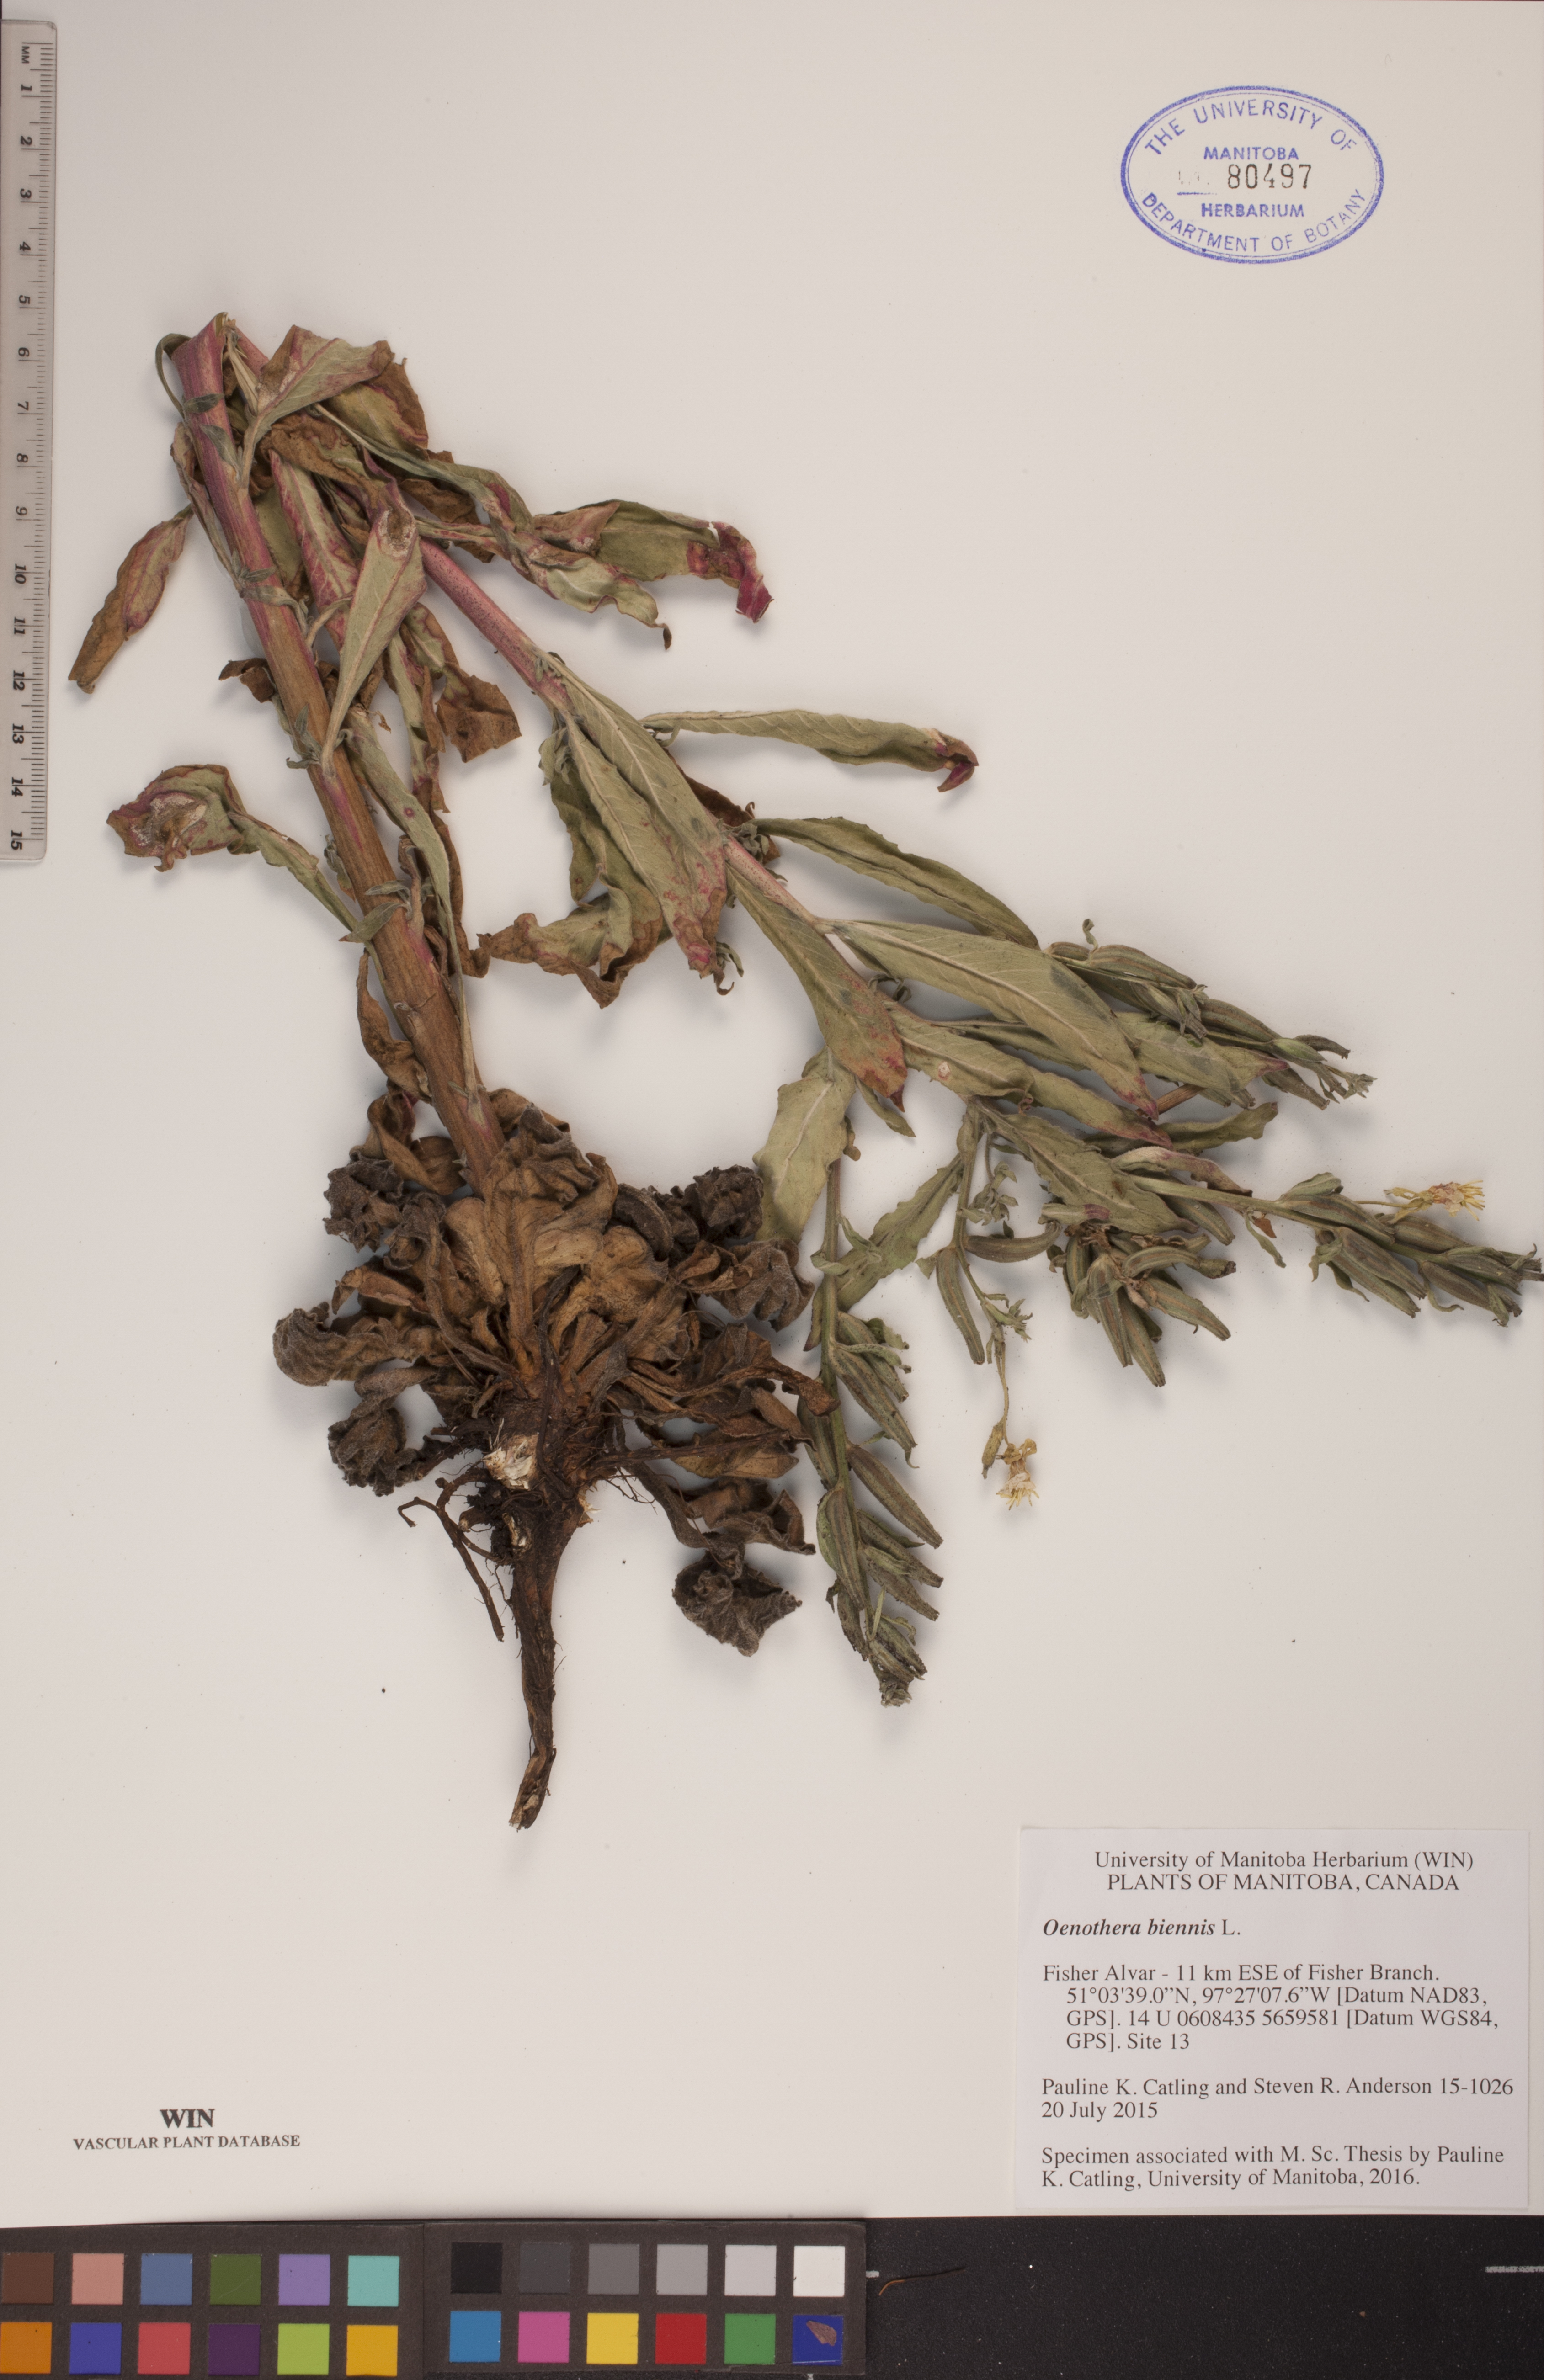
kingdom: Plantae
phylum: Tracheophyta
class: Magnoliopsida
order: Myrtales
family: Onagraceae
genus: Oenothera
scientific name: Oenothera biennis
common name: Common evening-primrose
